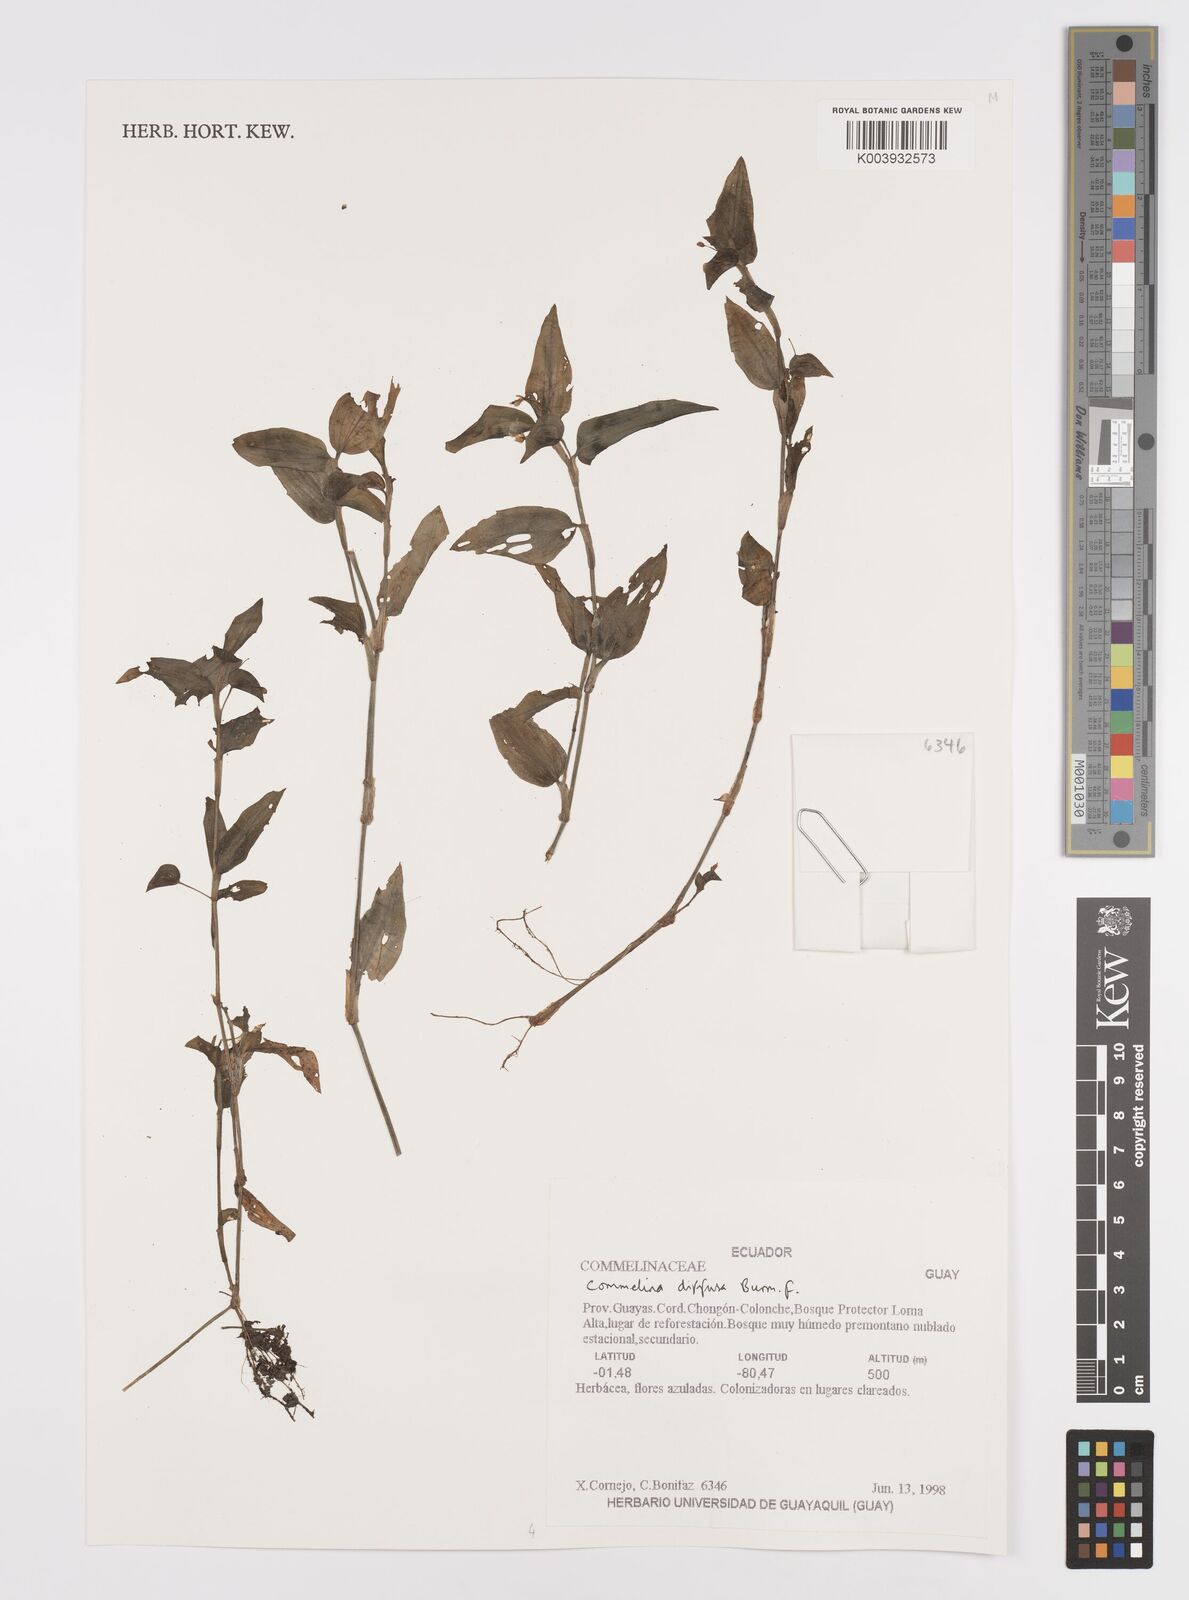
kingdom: Plantae
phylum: Tracheophyta
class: Liliopsida
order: Commelinales
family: Commelinaceae
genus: Commelina
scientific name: Commelina diffusa
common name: Climbing dayflower
